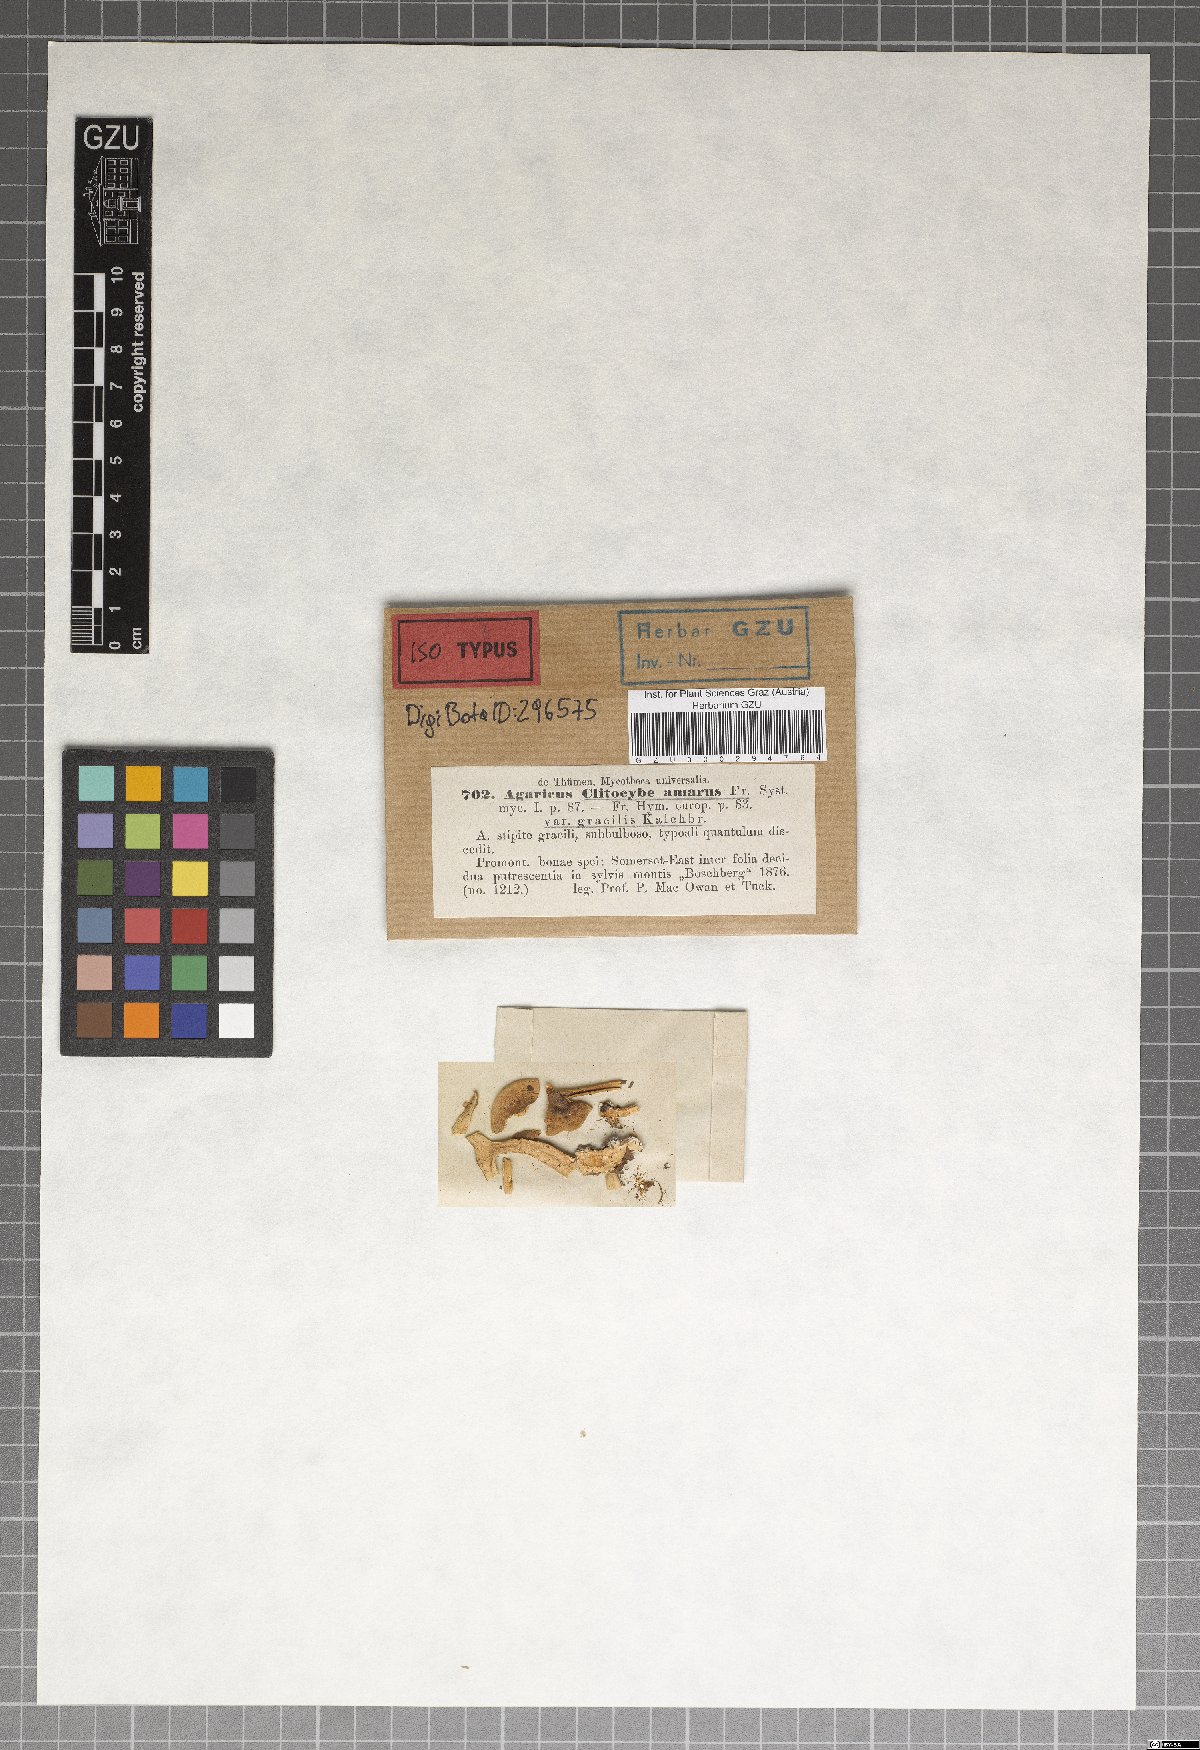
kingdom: Fungi
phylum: Basidiomycota
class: Agaricomycetes
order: Agaricales
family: Tricholomataceae
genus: Lepista
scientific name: Lepista amara
